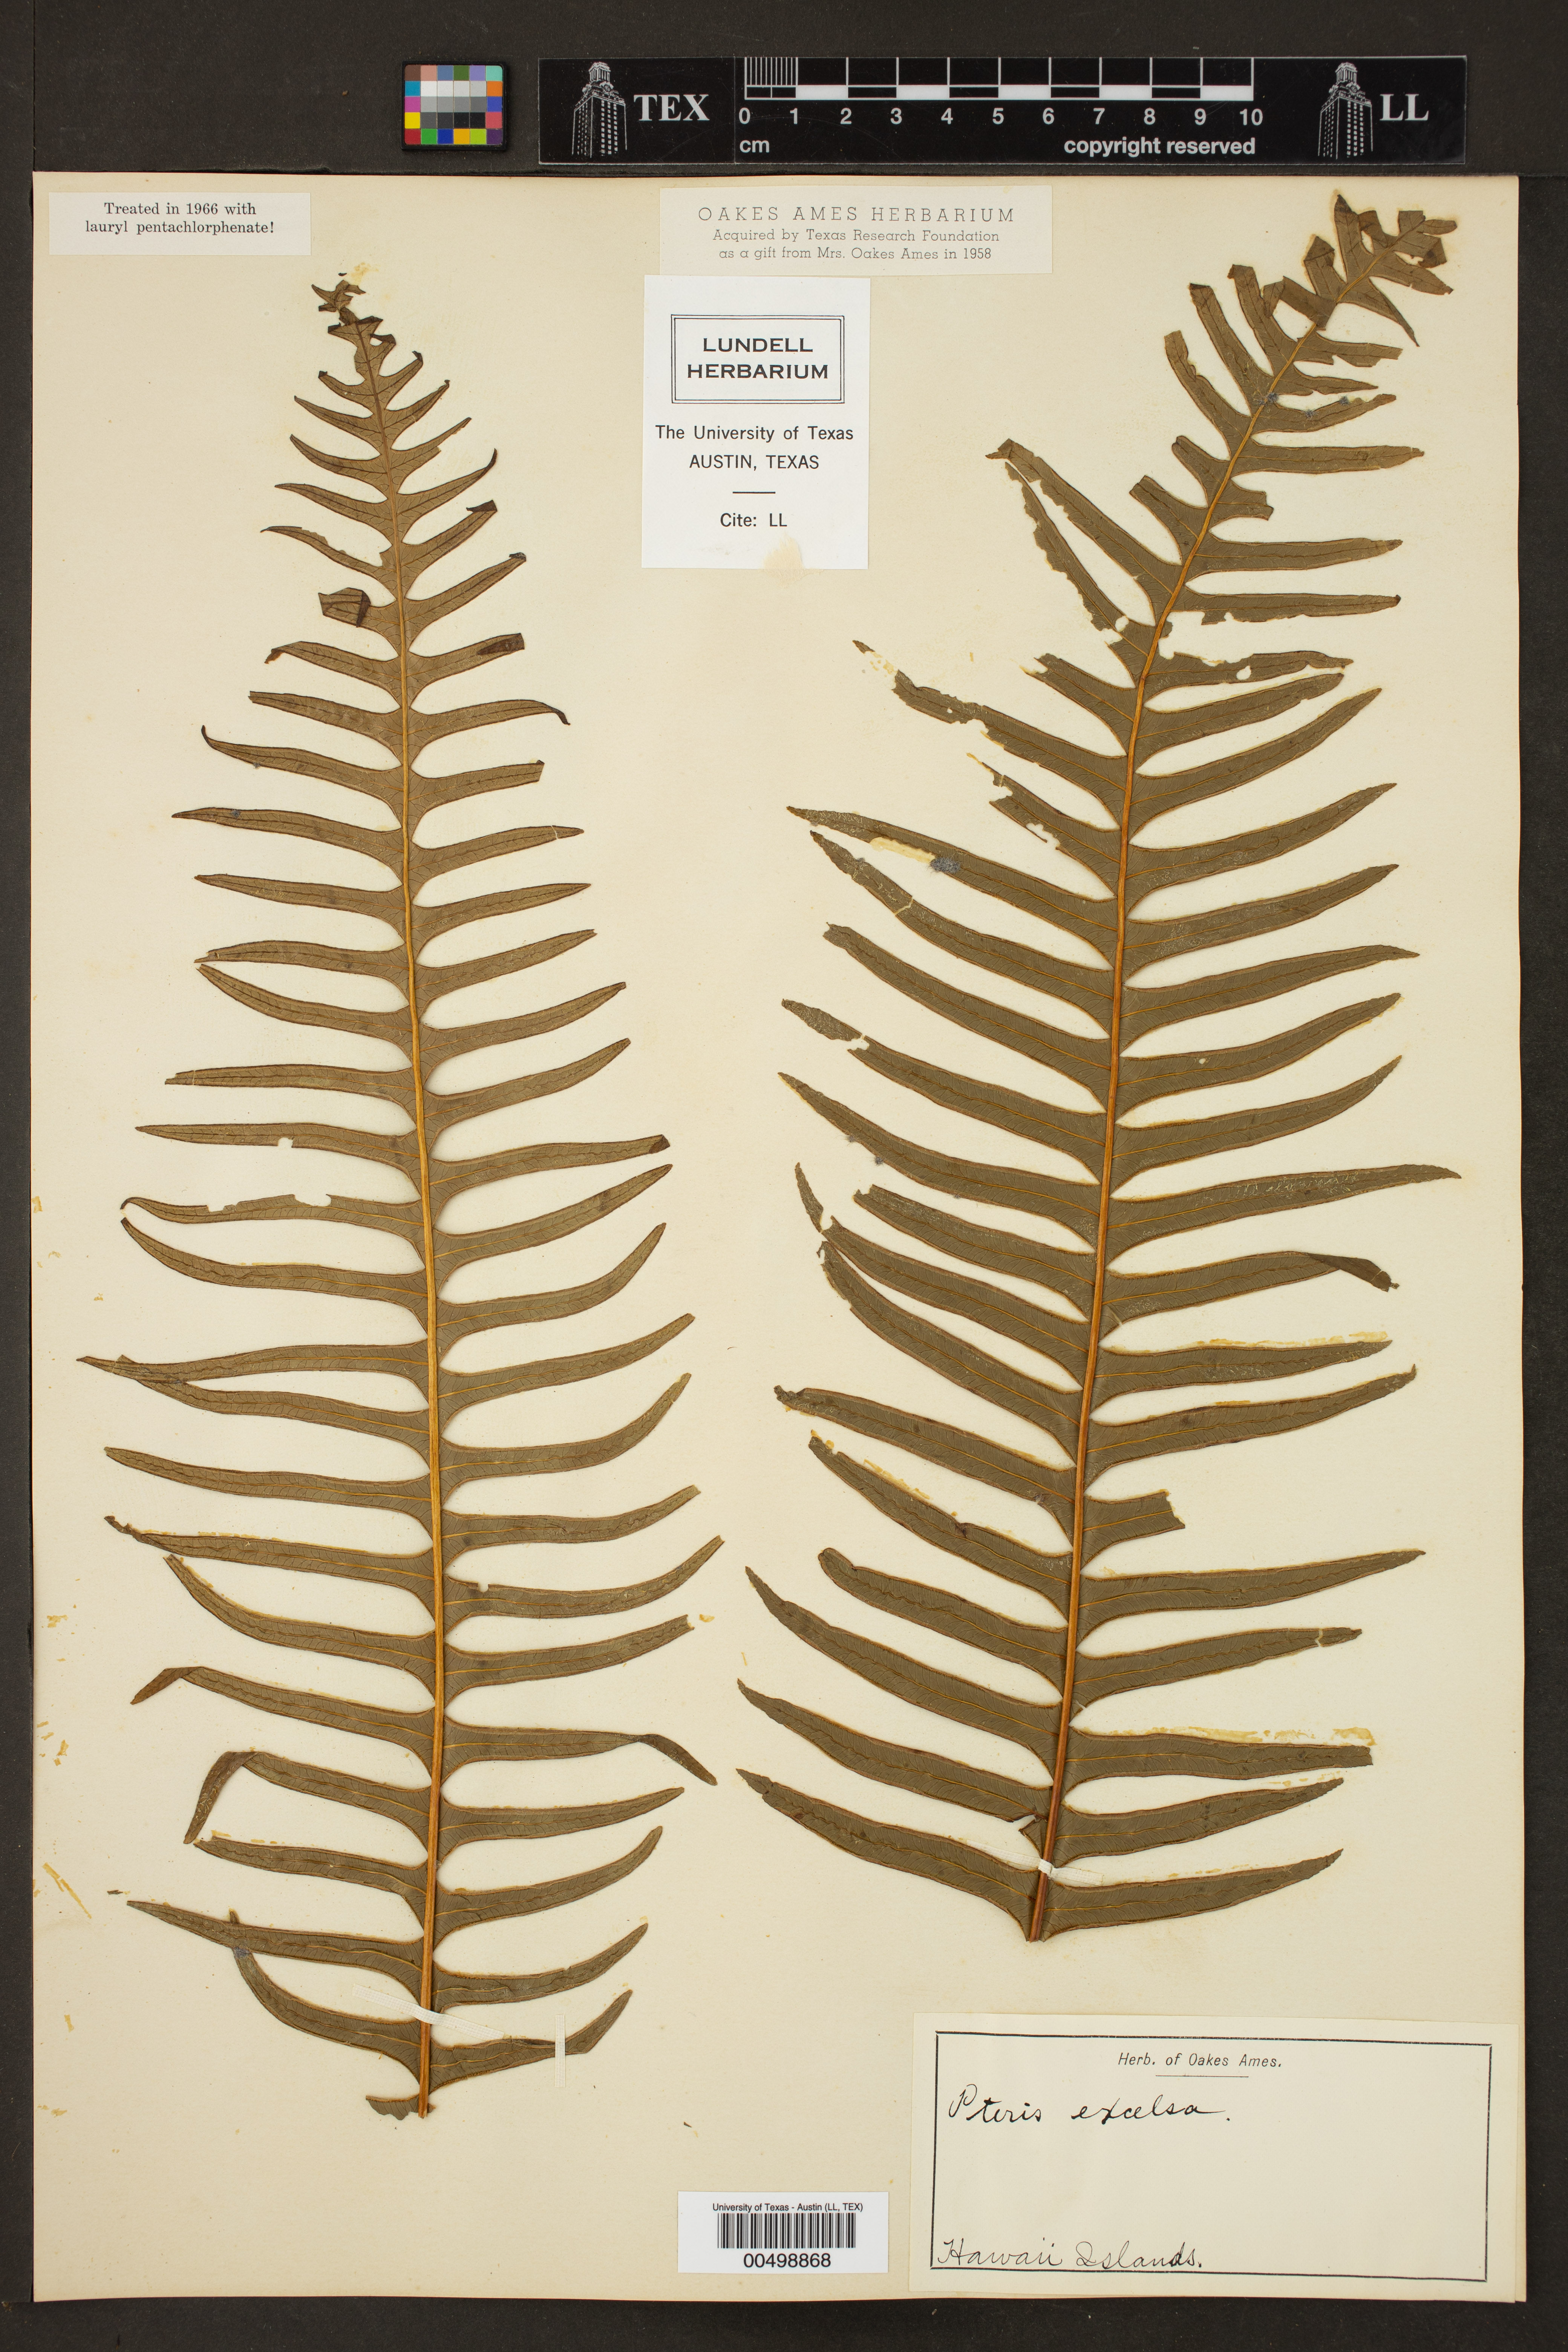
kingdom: Plantae
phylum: Tracheophyta
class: Polypodiopsida
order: Polypodiales
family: Pteridaceae
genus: Pteris
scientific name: Pteris terminalis
